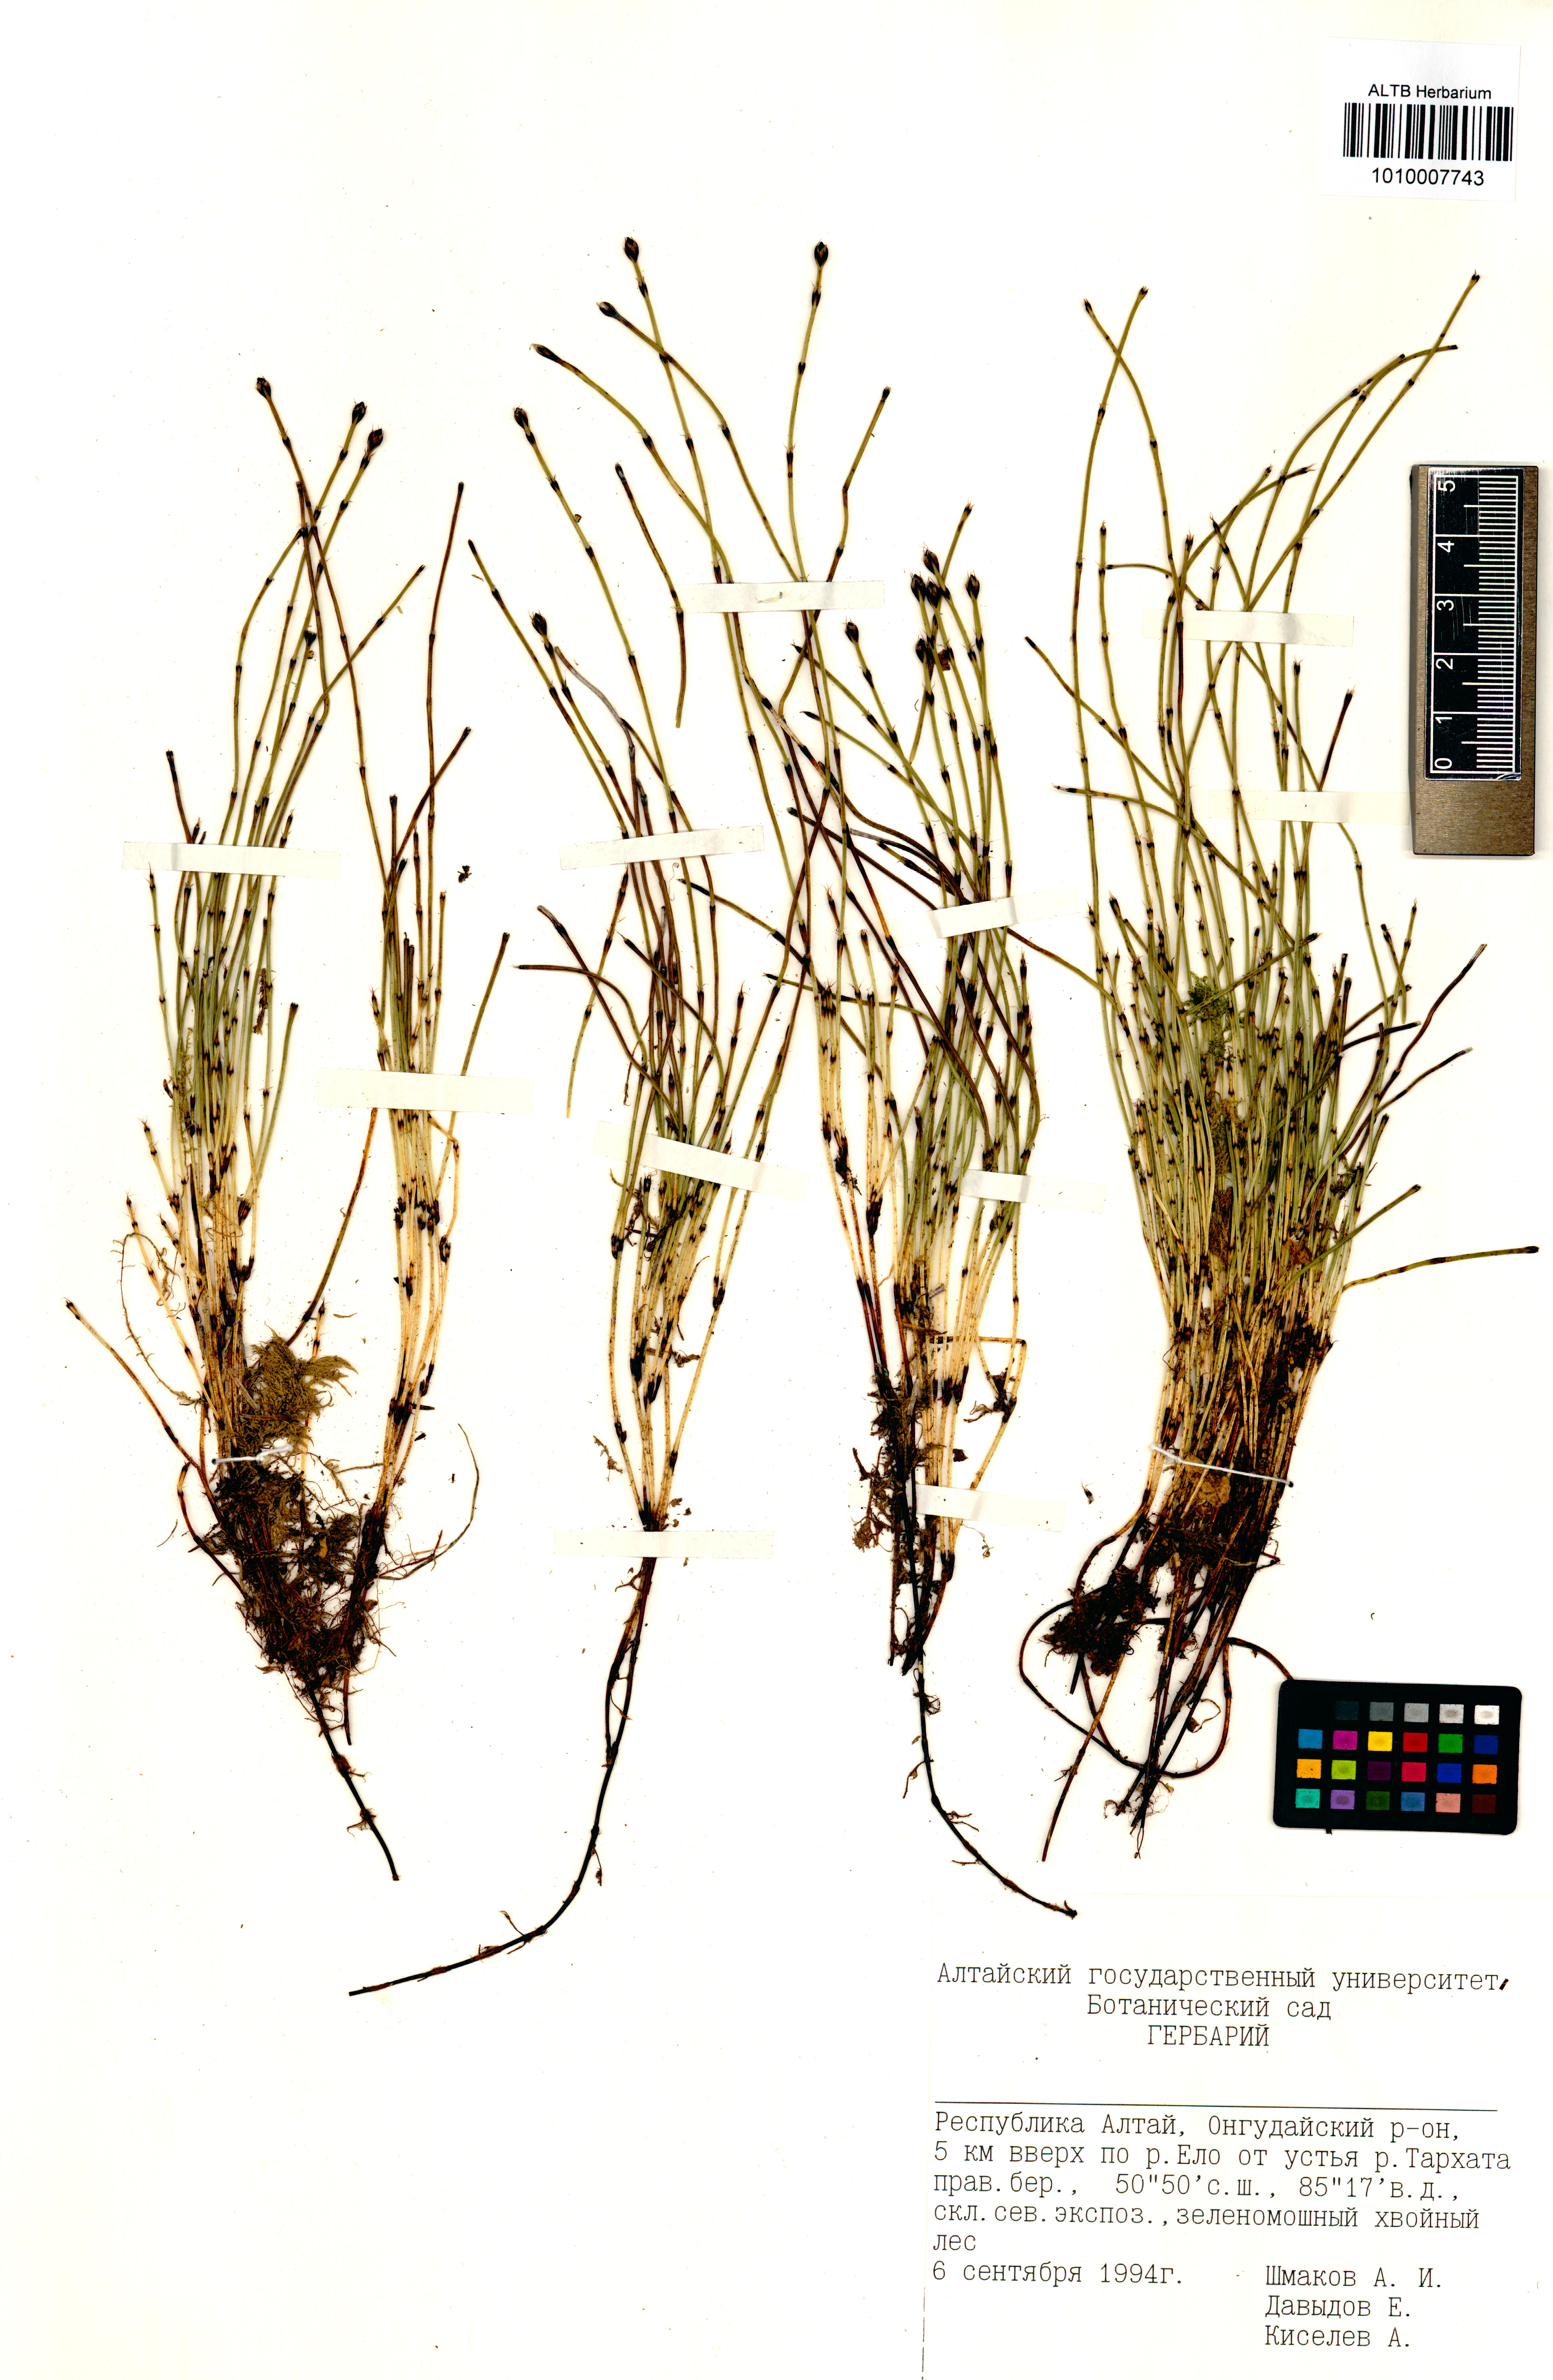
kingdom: Plantae
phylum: Tracheophyta
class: Polypodiopsida
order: Equisetales
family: Equisetaceae
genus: Equisetum
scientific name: Equisetum scirpoides
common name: Delicate horsetail
